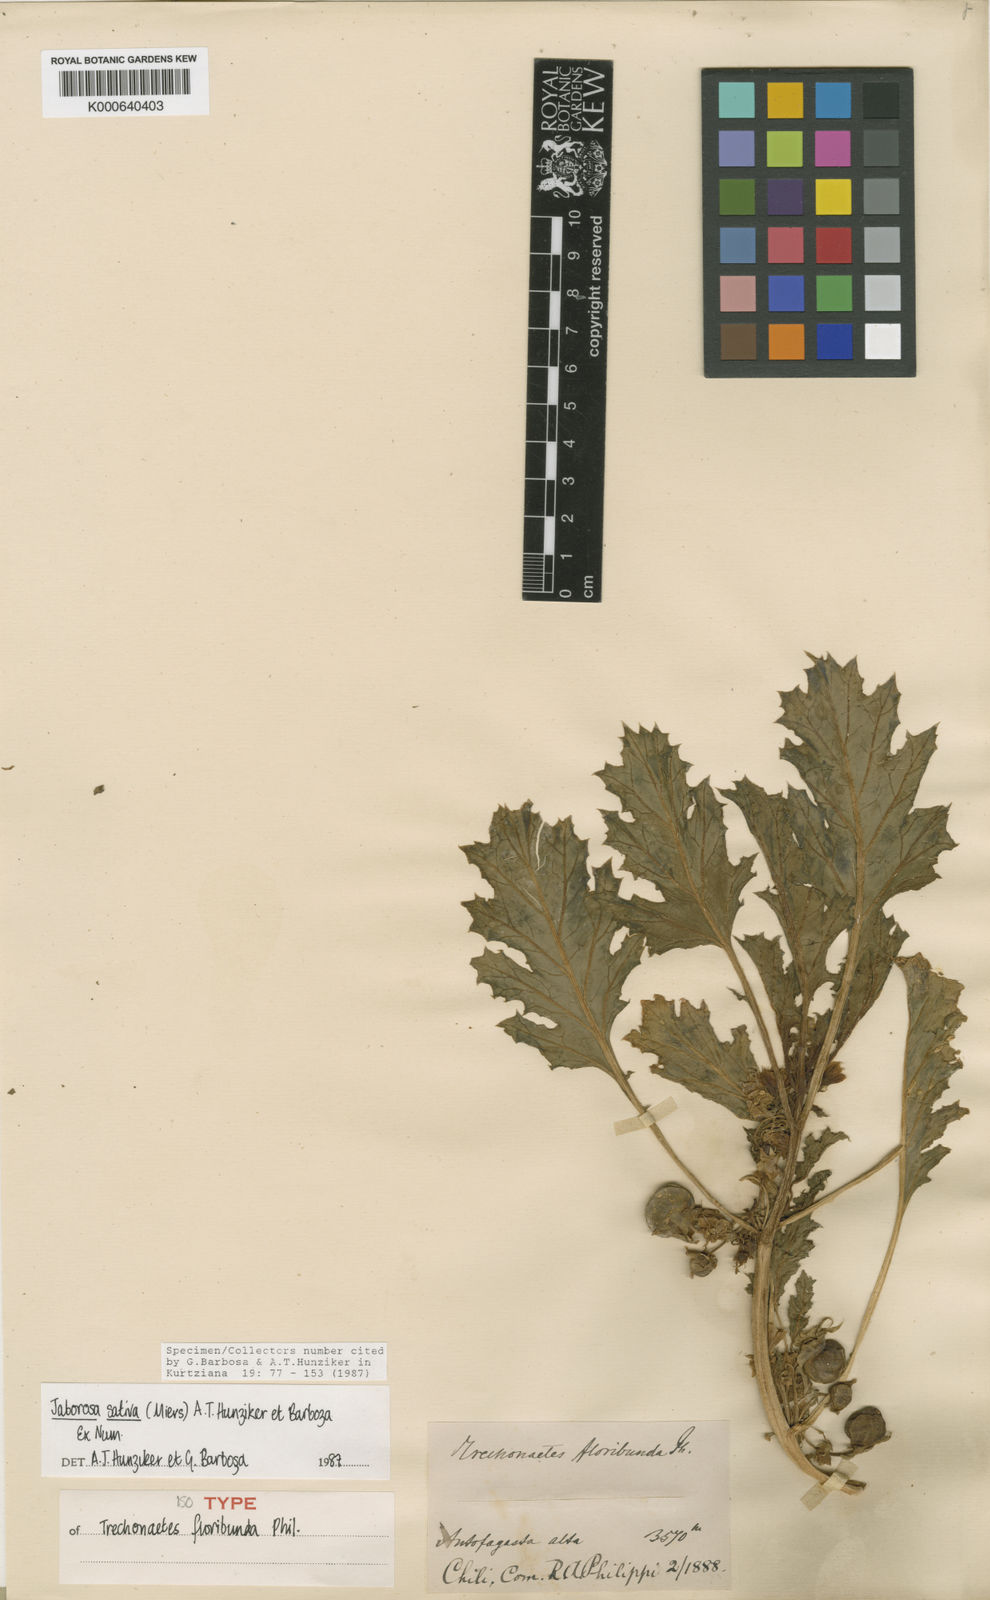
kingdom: Plantae
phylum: Tracheophyta
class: Magnoliopsida
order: Solanales
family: Solanaceae
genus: Jaborosa
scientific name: Jaborosa sativa
